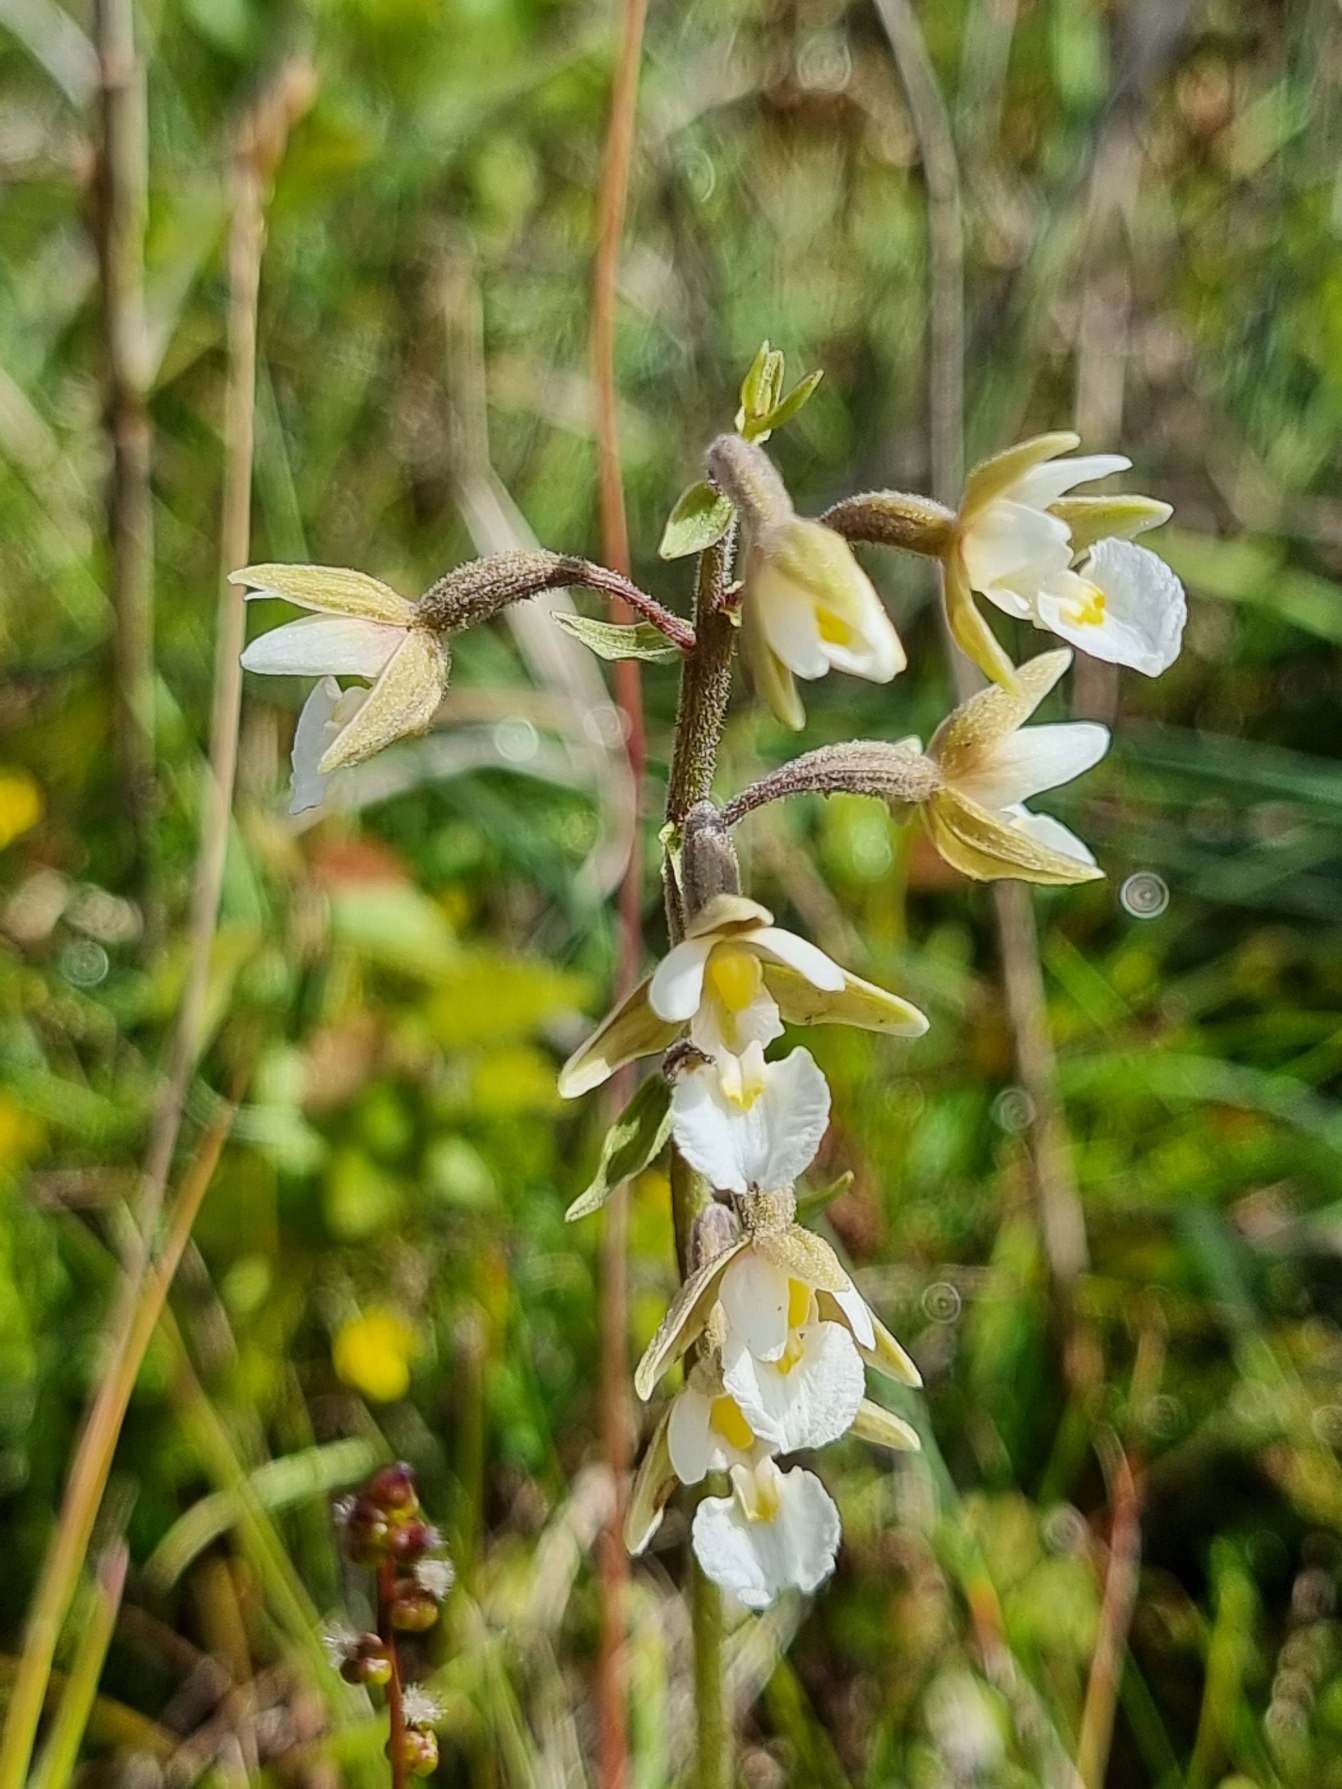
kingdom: Plantae
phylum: Tracheophyta
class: Liliopsida
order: Asparagales
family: Orchidaceae
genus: Epipactis
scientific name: Epipactis palustris
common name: Sump-hullæbe
